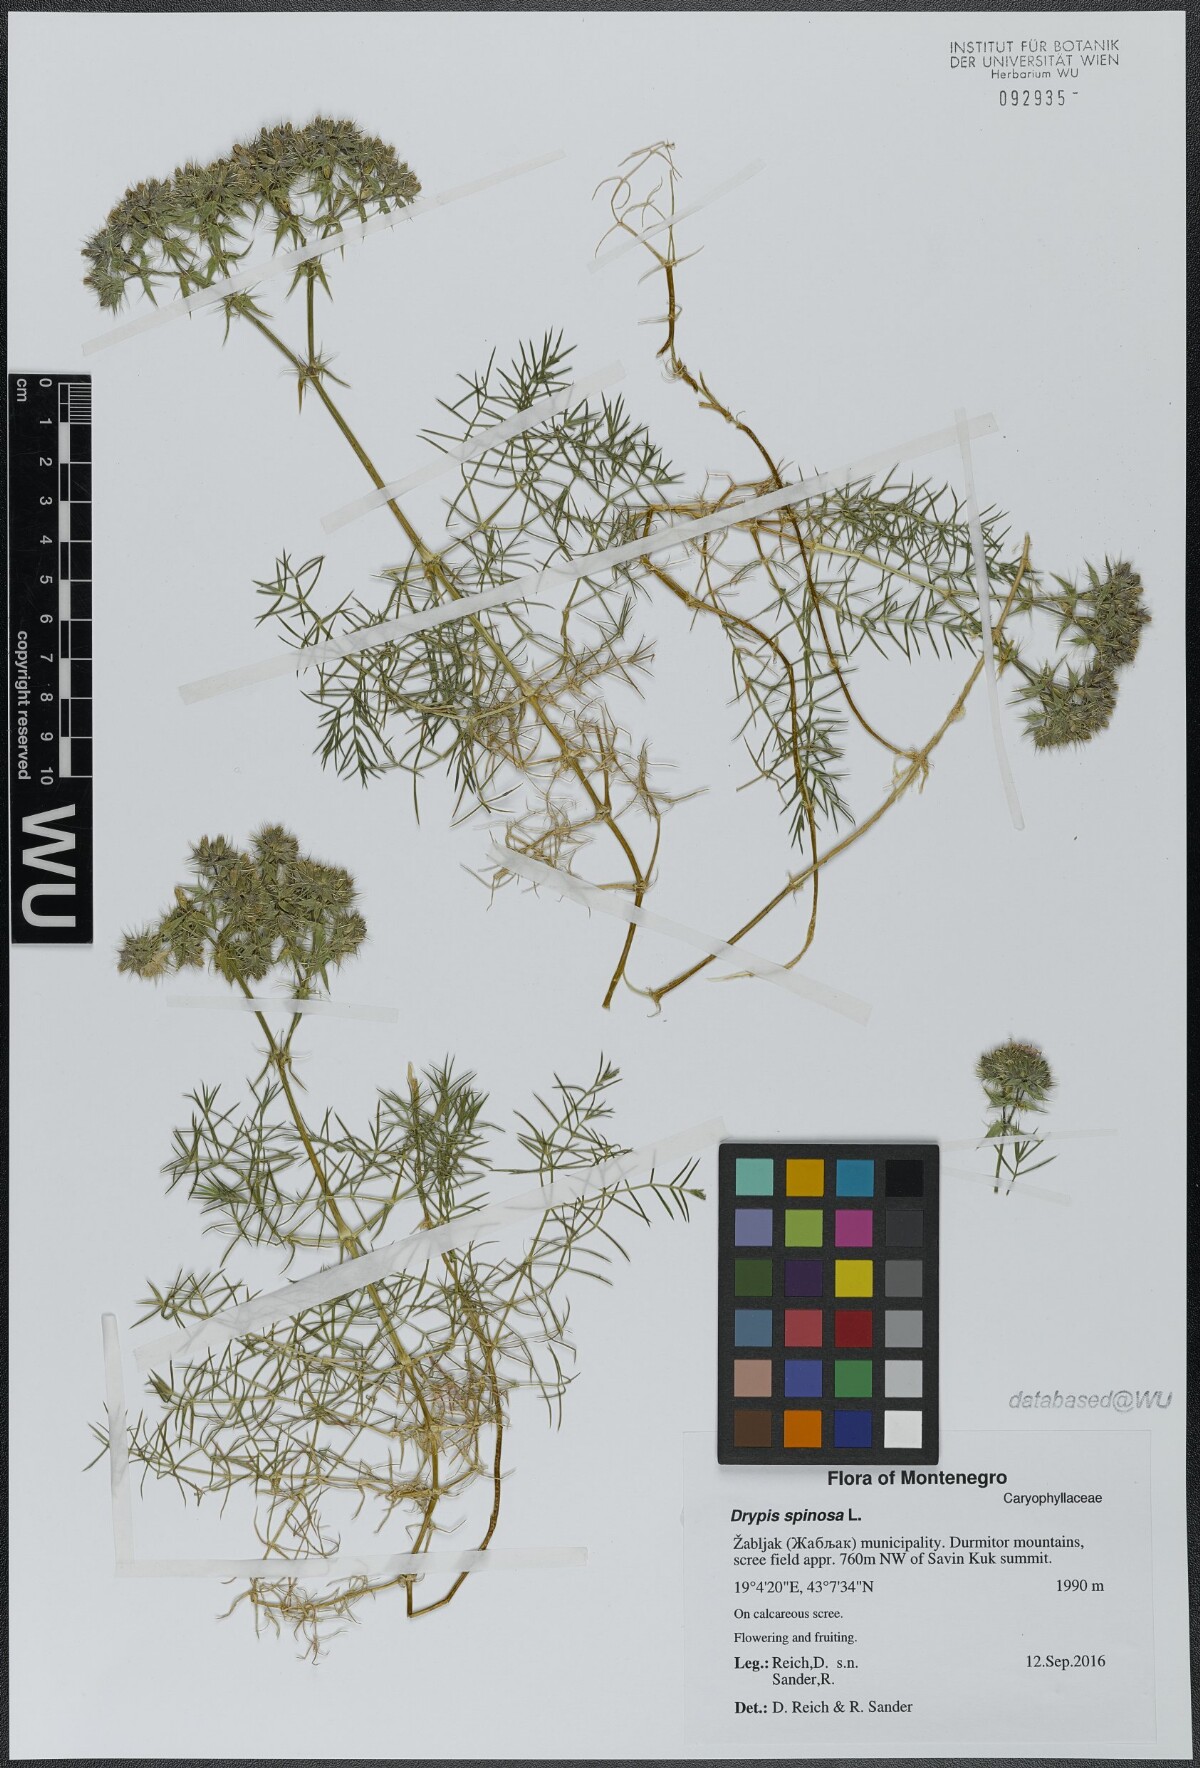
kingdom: Plantae
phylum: Tracheophyta
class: Magnoliopsida
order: Caryophyllales
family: Caryophyllaceae
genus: Drypis
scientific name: Drypis spinosa
